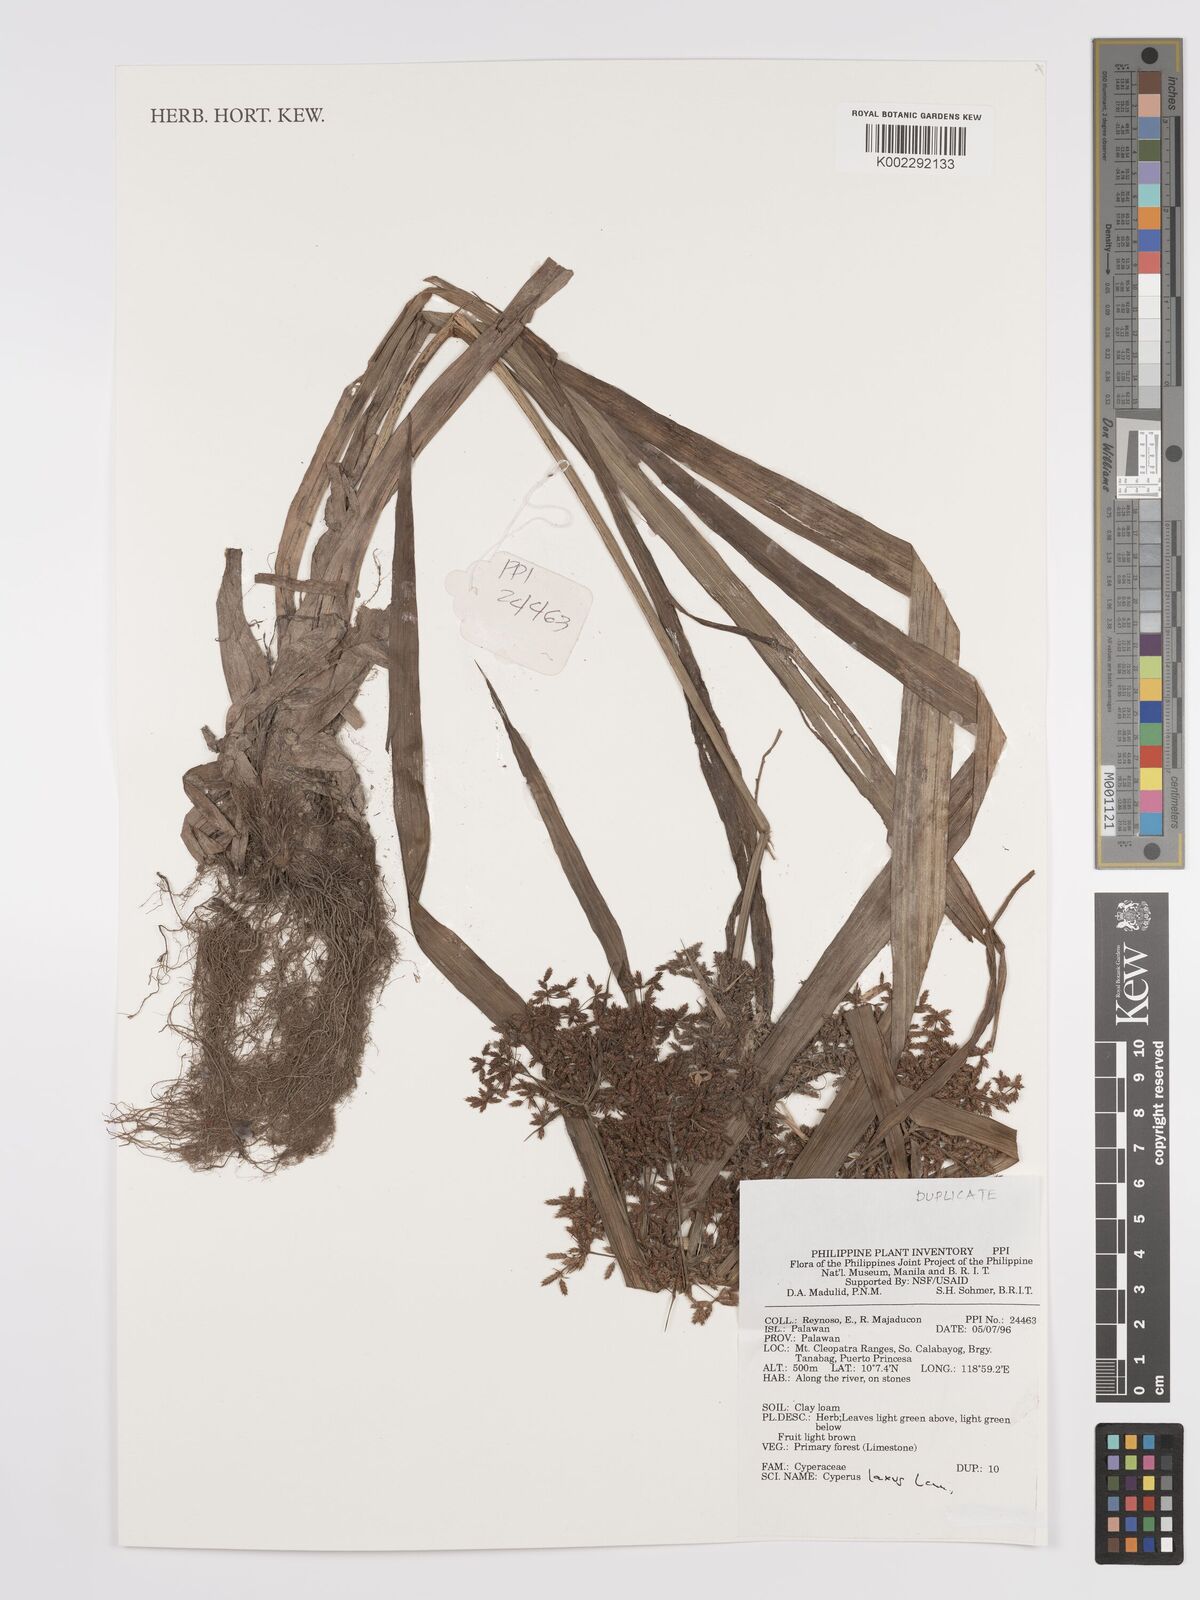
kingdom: Plantae
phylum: Tracheophyta
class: Liliopsida
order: Poales
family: Cyperaceae
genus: Cyperus
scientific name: Cyperus diffusus
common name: Dwarf umbrella grass
